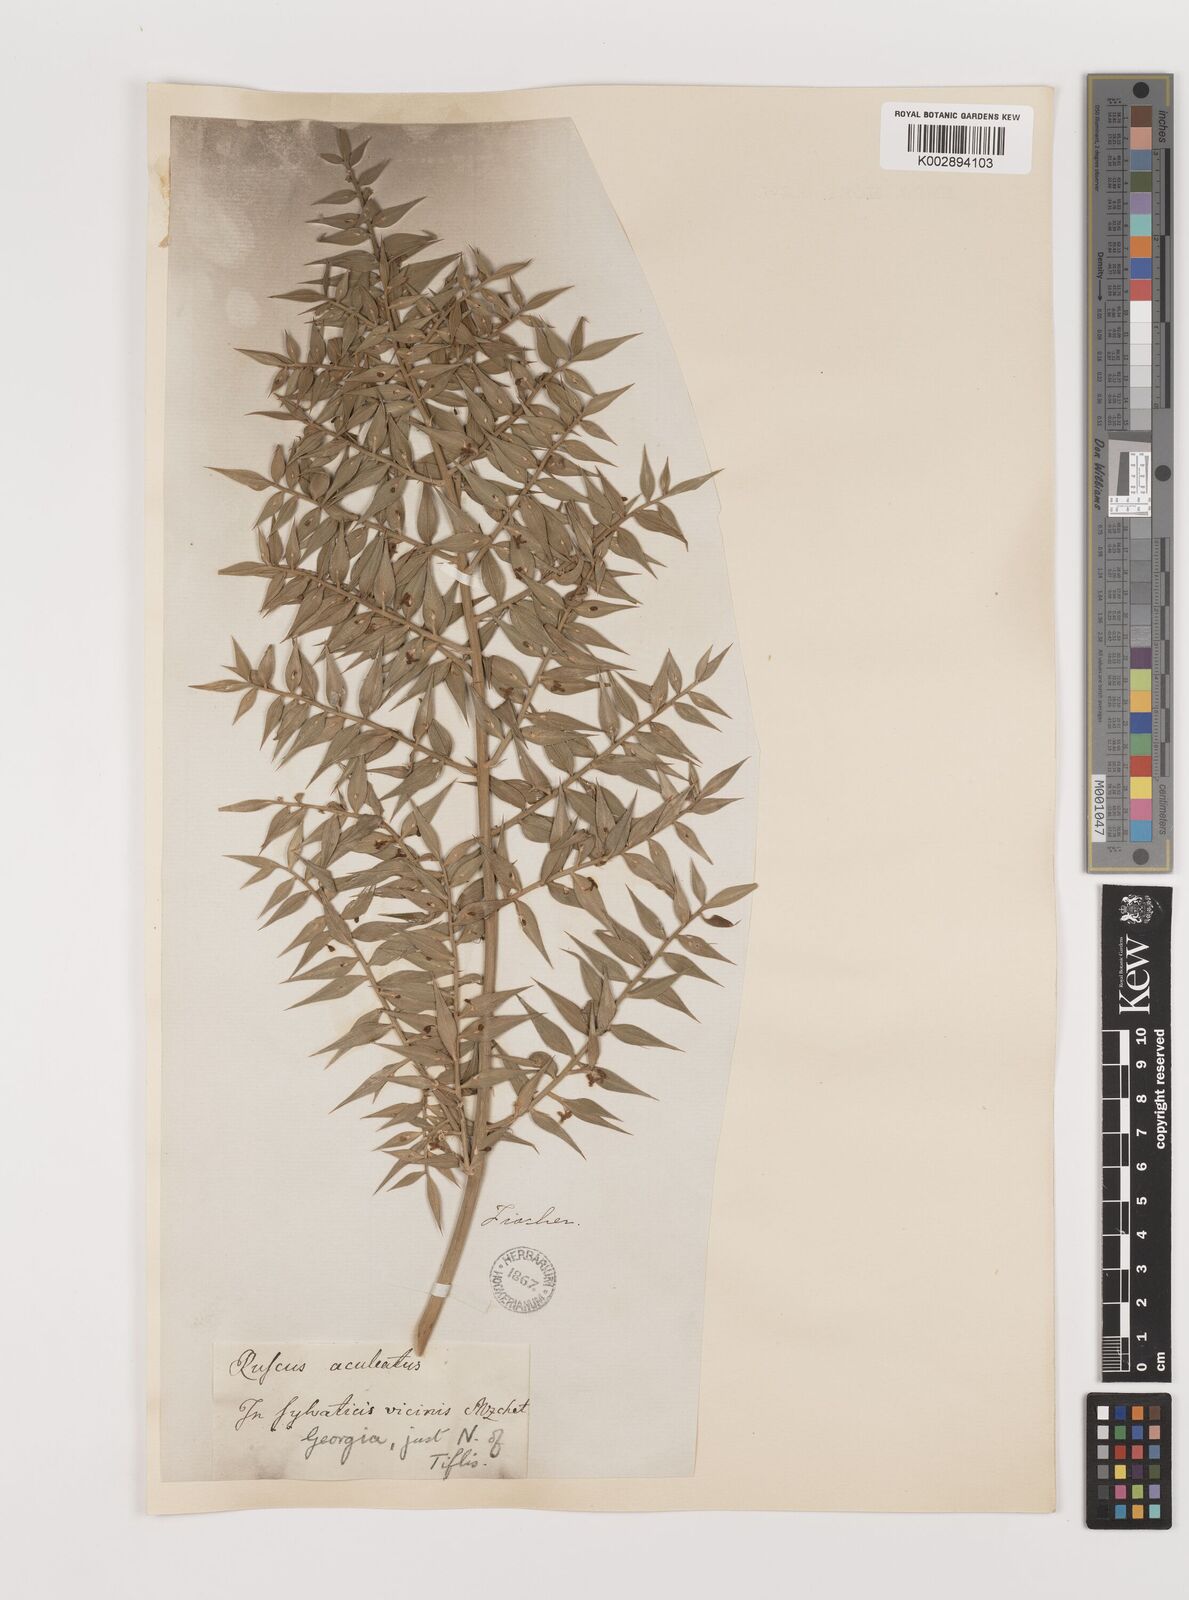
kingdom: Plantae
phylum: Tracheophyta
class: Liliopsida
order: Asparagales
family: Asparagaceae
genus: Ruscus
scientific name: Ruscus aculeatus
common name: Butcher's-broom
